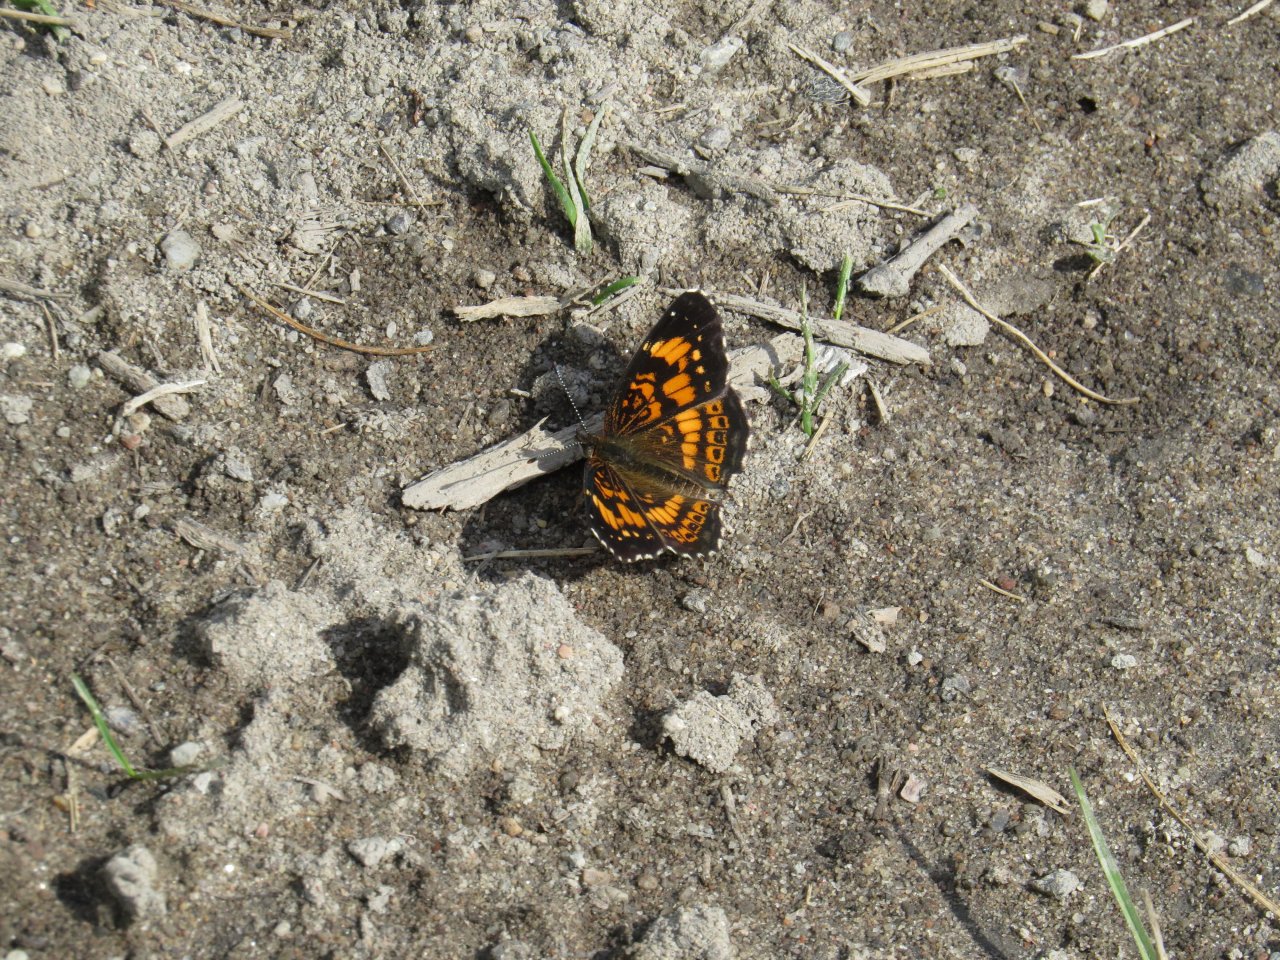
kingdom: Animalia
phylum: Arthropoda
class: Insecta
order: Lepidoptera
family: Nymphalidae
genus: Chlosyne
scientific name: Chlosyne nycteis
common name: Silvery Checkerspot
